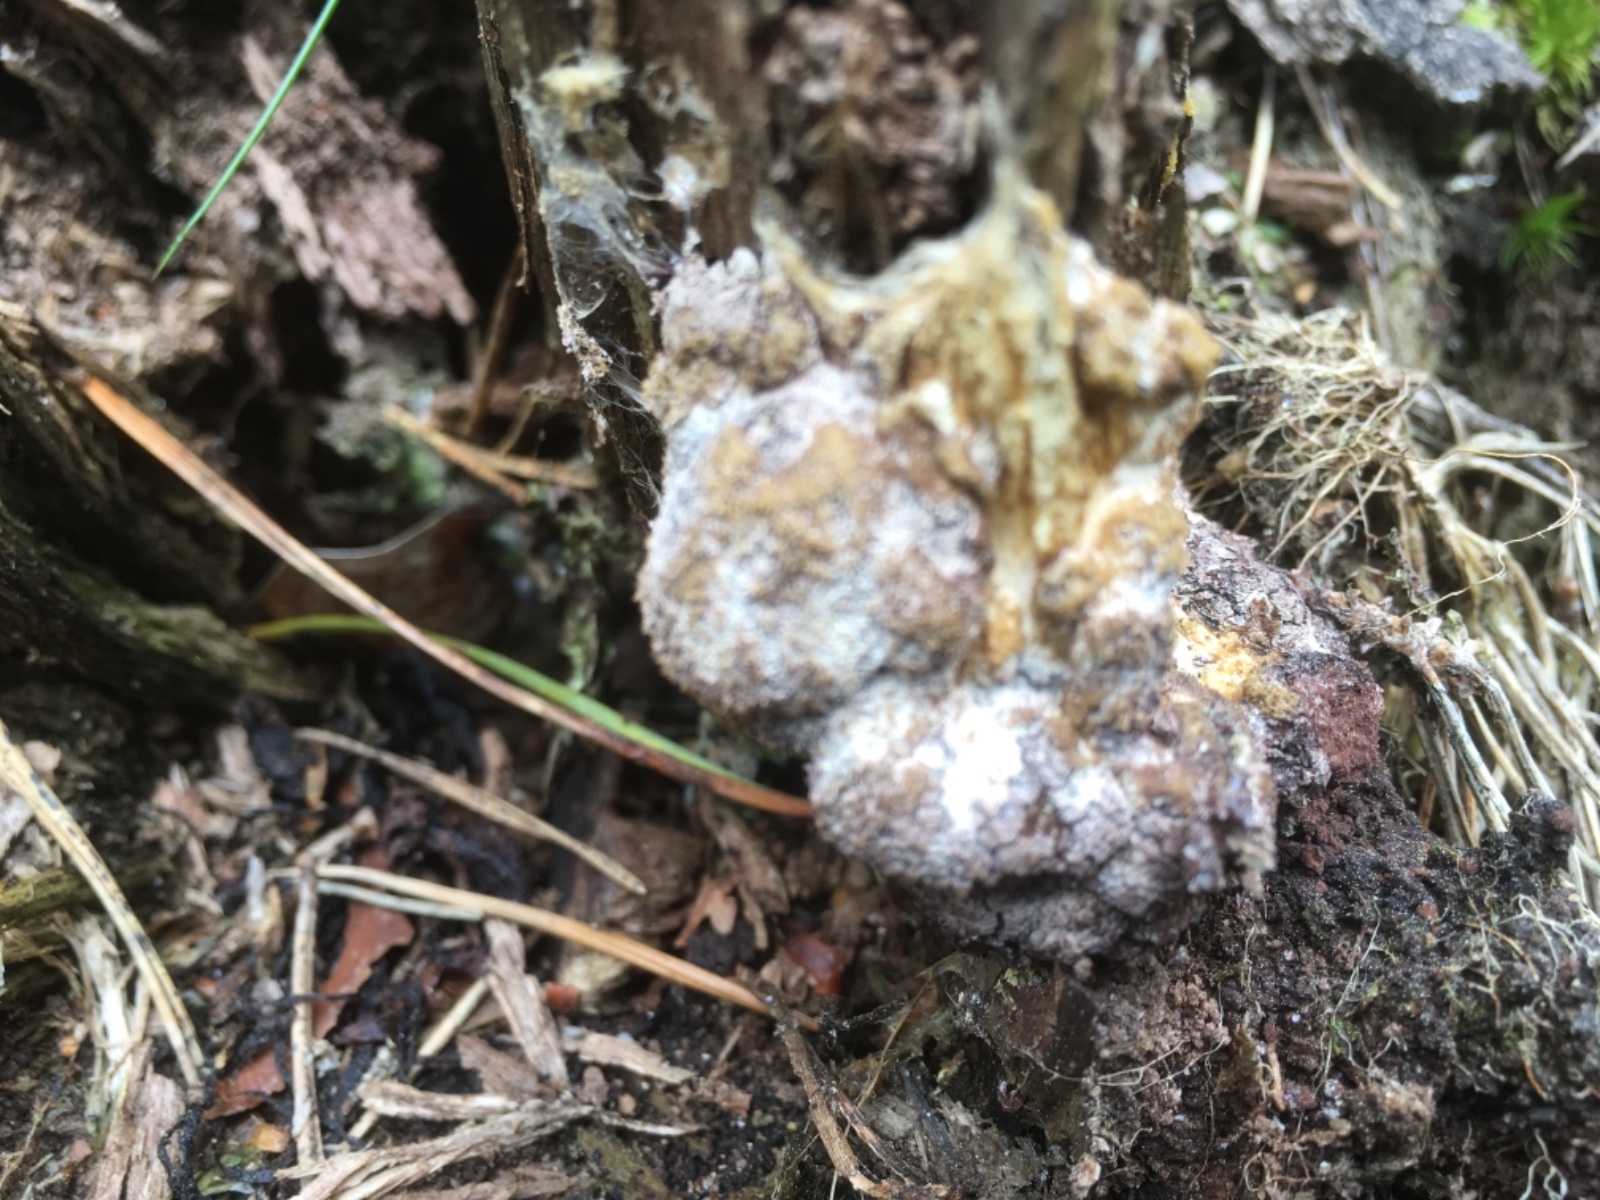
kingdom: Protozoa
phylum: Mycetozoa
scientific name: Mycetozoa
